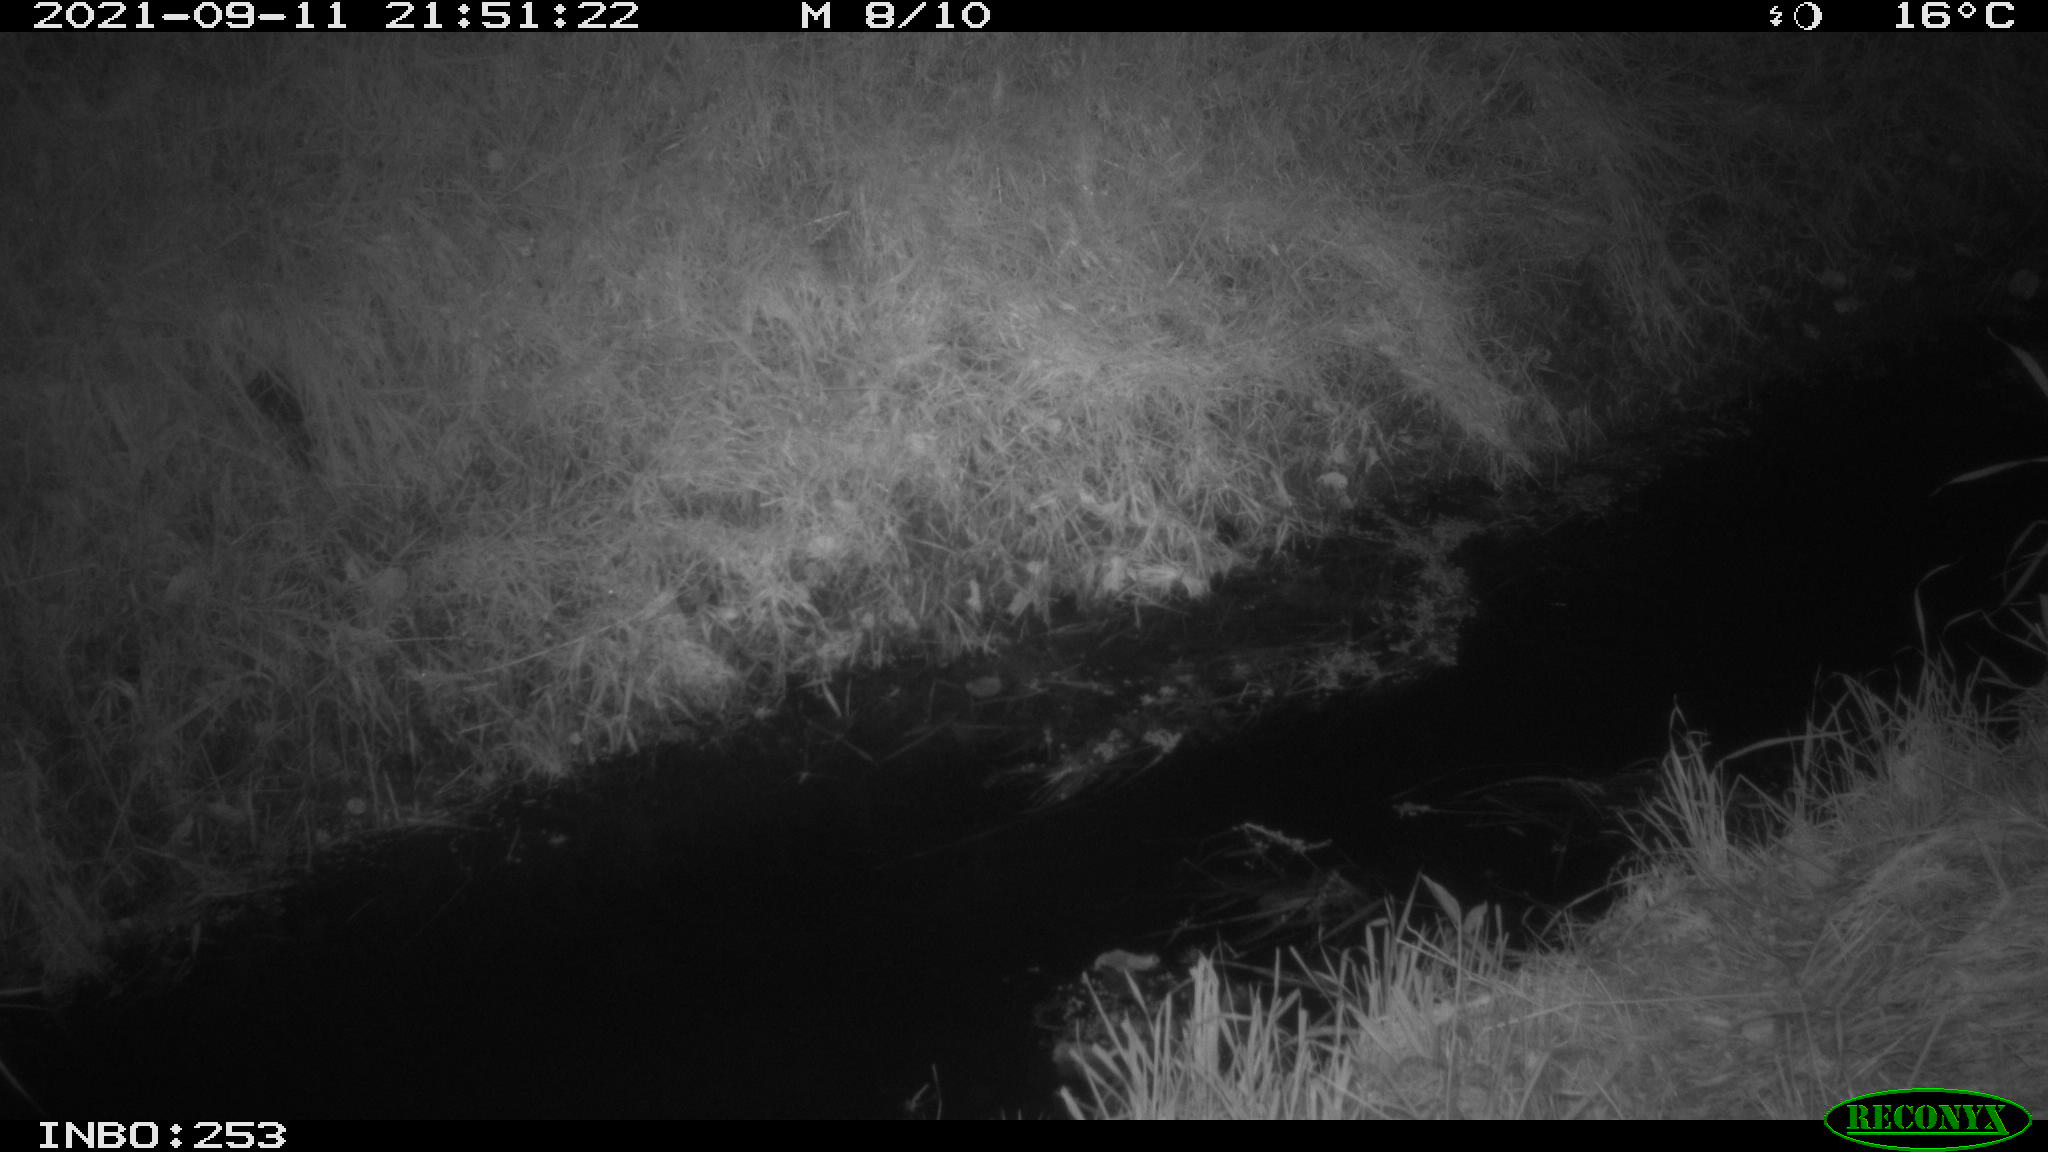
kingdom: Animalia
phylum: Chordata
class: Mammalia
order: Carnivora
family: Canidae
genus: Vulpes
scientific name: Vulpes vulpes
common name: Red fox
